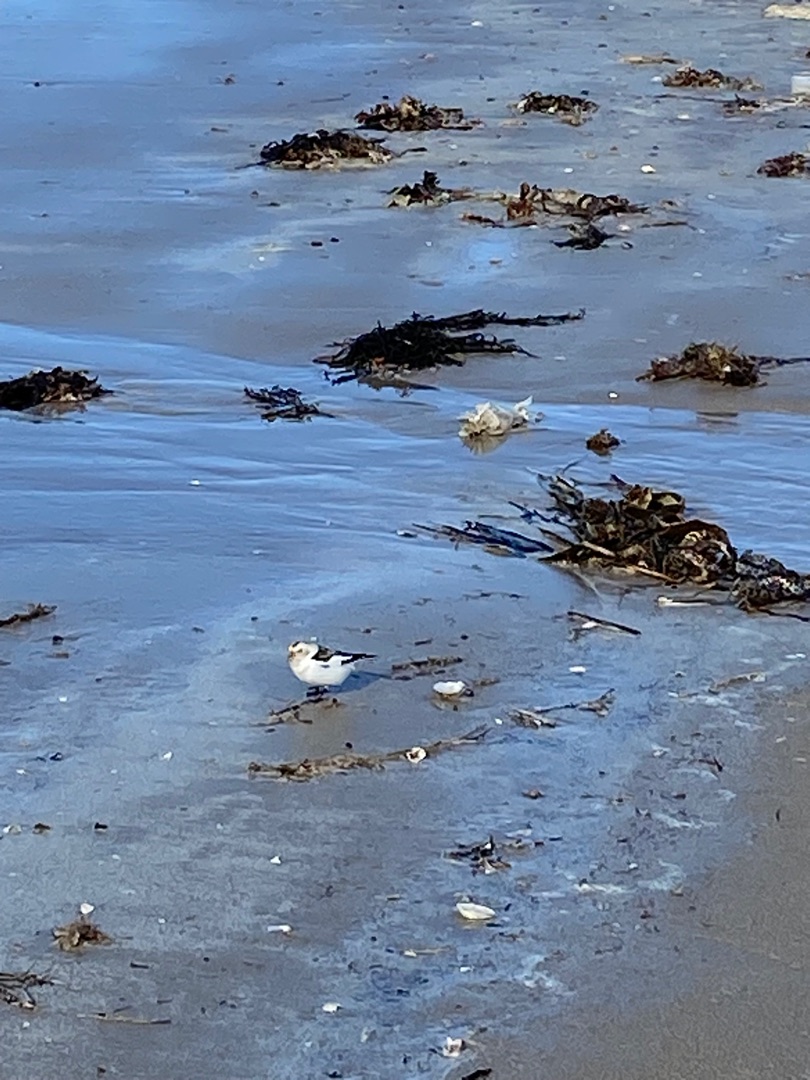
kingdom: Animalia
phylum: Chordata
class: Aves
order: Passeriformes
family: Calcariidae
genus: Plectrophenax
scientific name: Plectrophenax nivalis
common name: Snespurv
